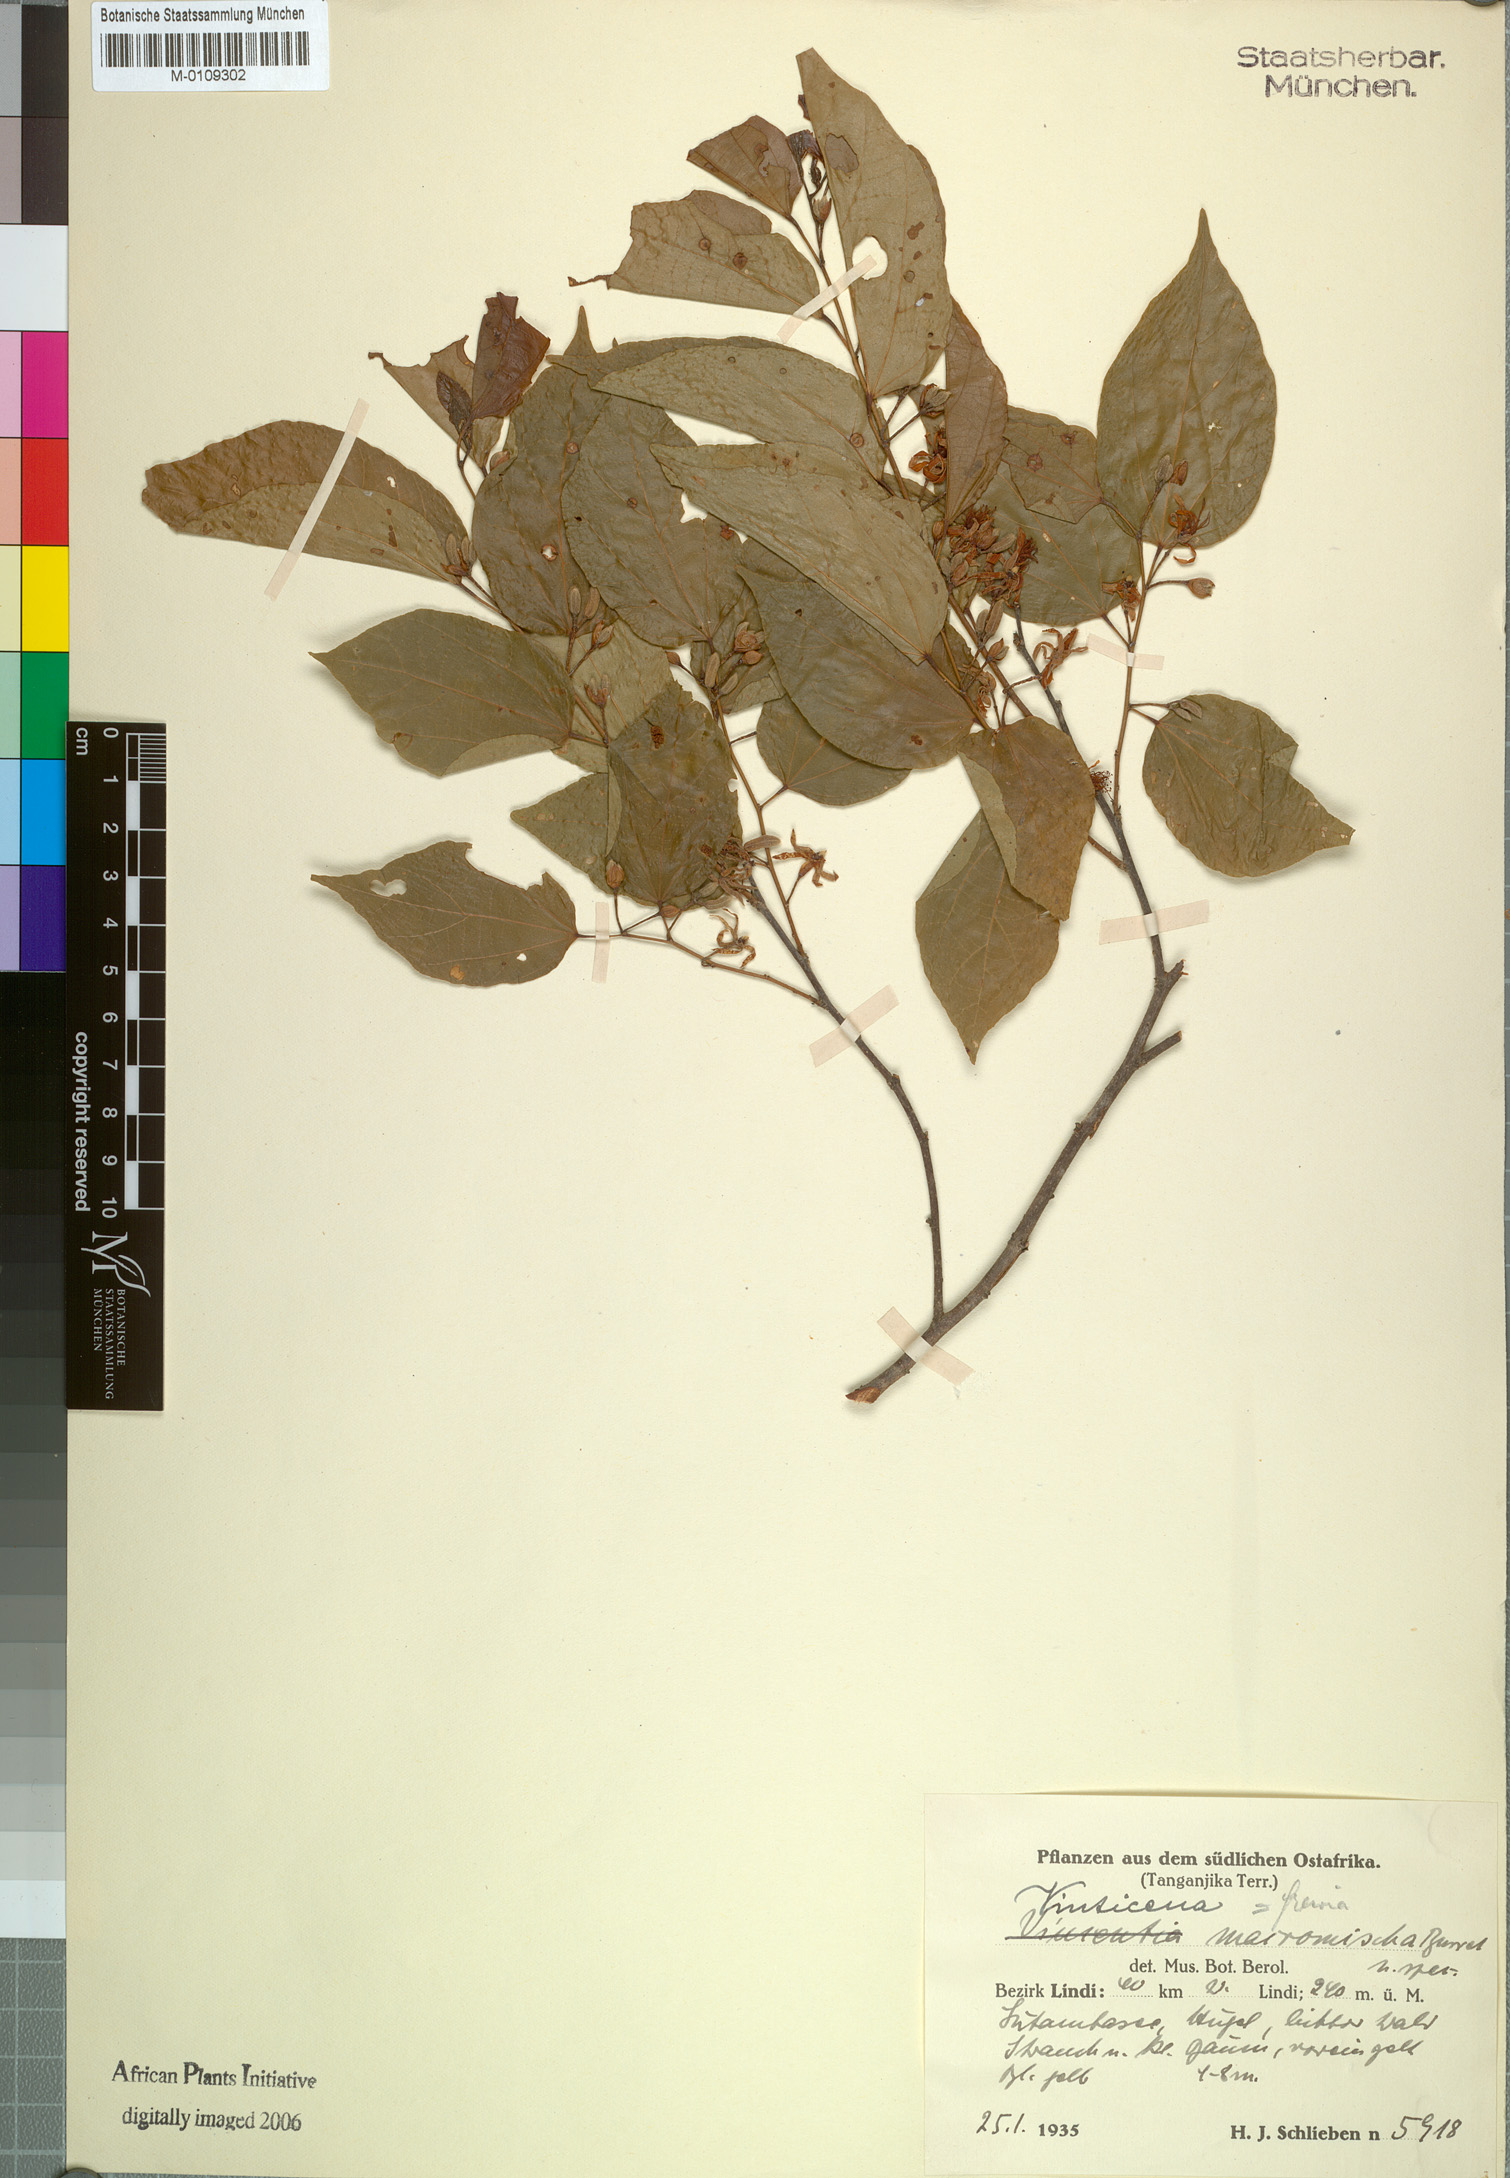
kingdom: Plantae
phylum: Tracheophyta
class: Magnoliopsida
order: Malvales
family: Malvaceae
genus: Grewia
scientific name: Grewia triflora
